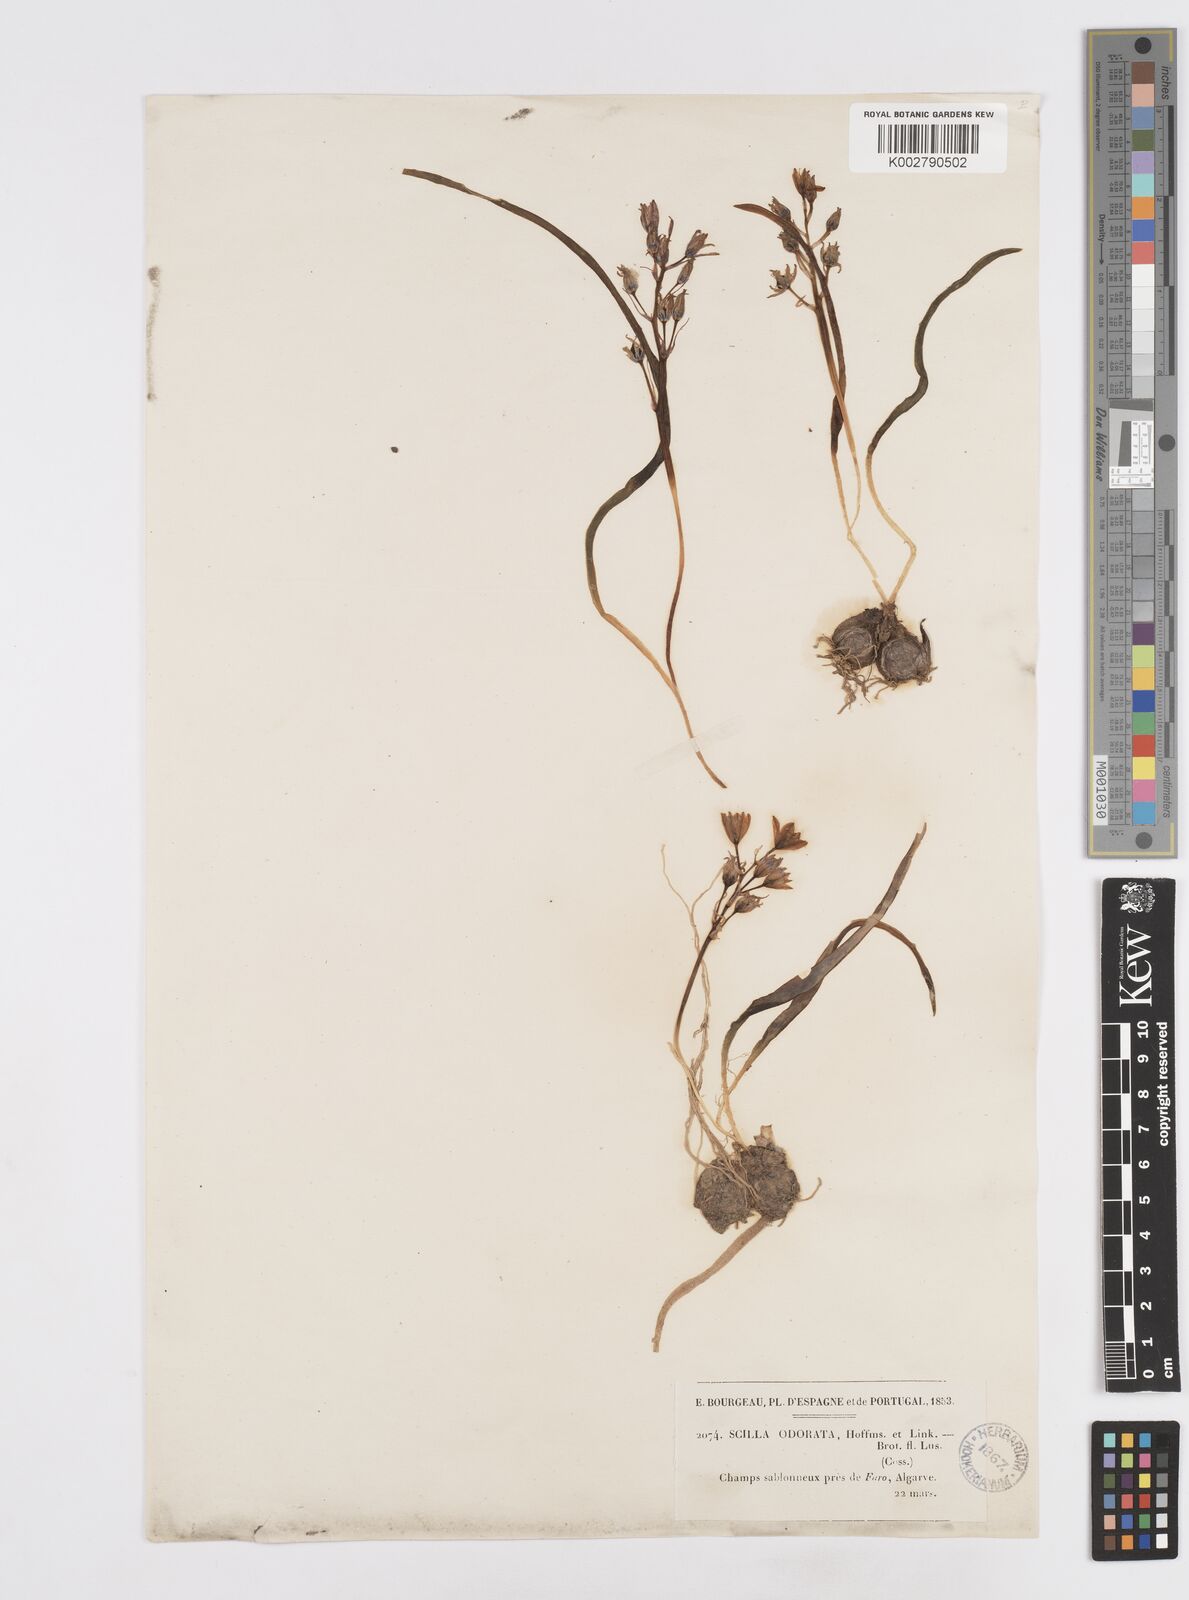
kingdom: Plantae
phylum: Tracheophyta
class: Liliopsida
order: Asparagales
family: Asparagaceae
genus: Scilla
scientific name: Scilla verna
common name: Spring squill
